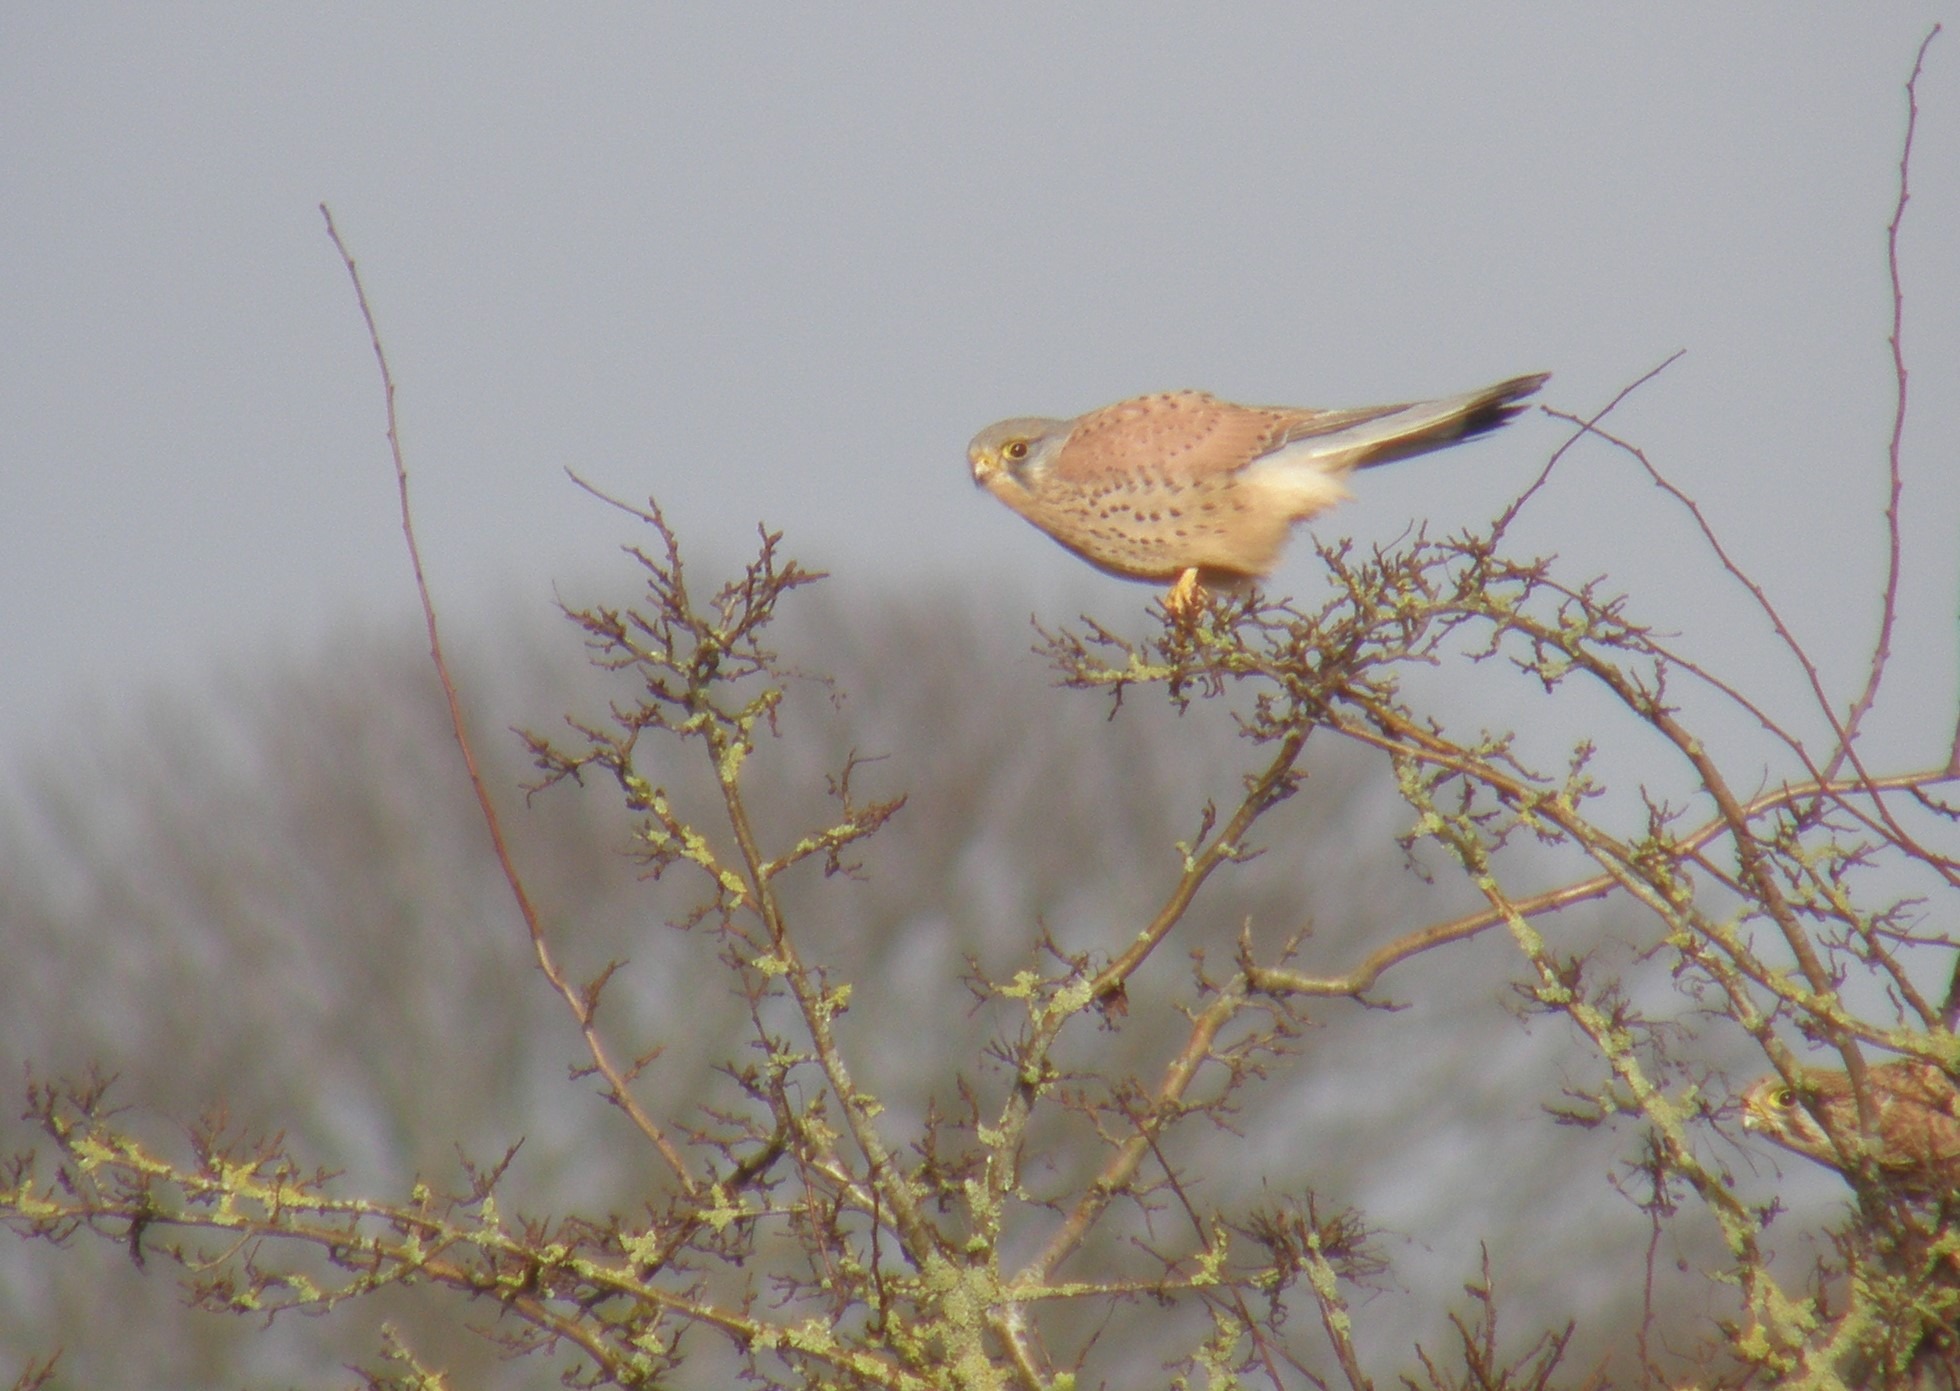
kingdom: Animalia
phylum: Chordata
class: Aves
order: Falconiformes
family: Falconidae
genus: Falco
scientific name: Falco tinnunculus
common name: Tårnfalk
